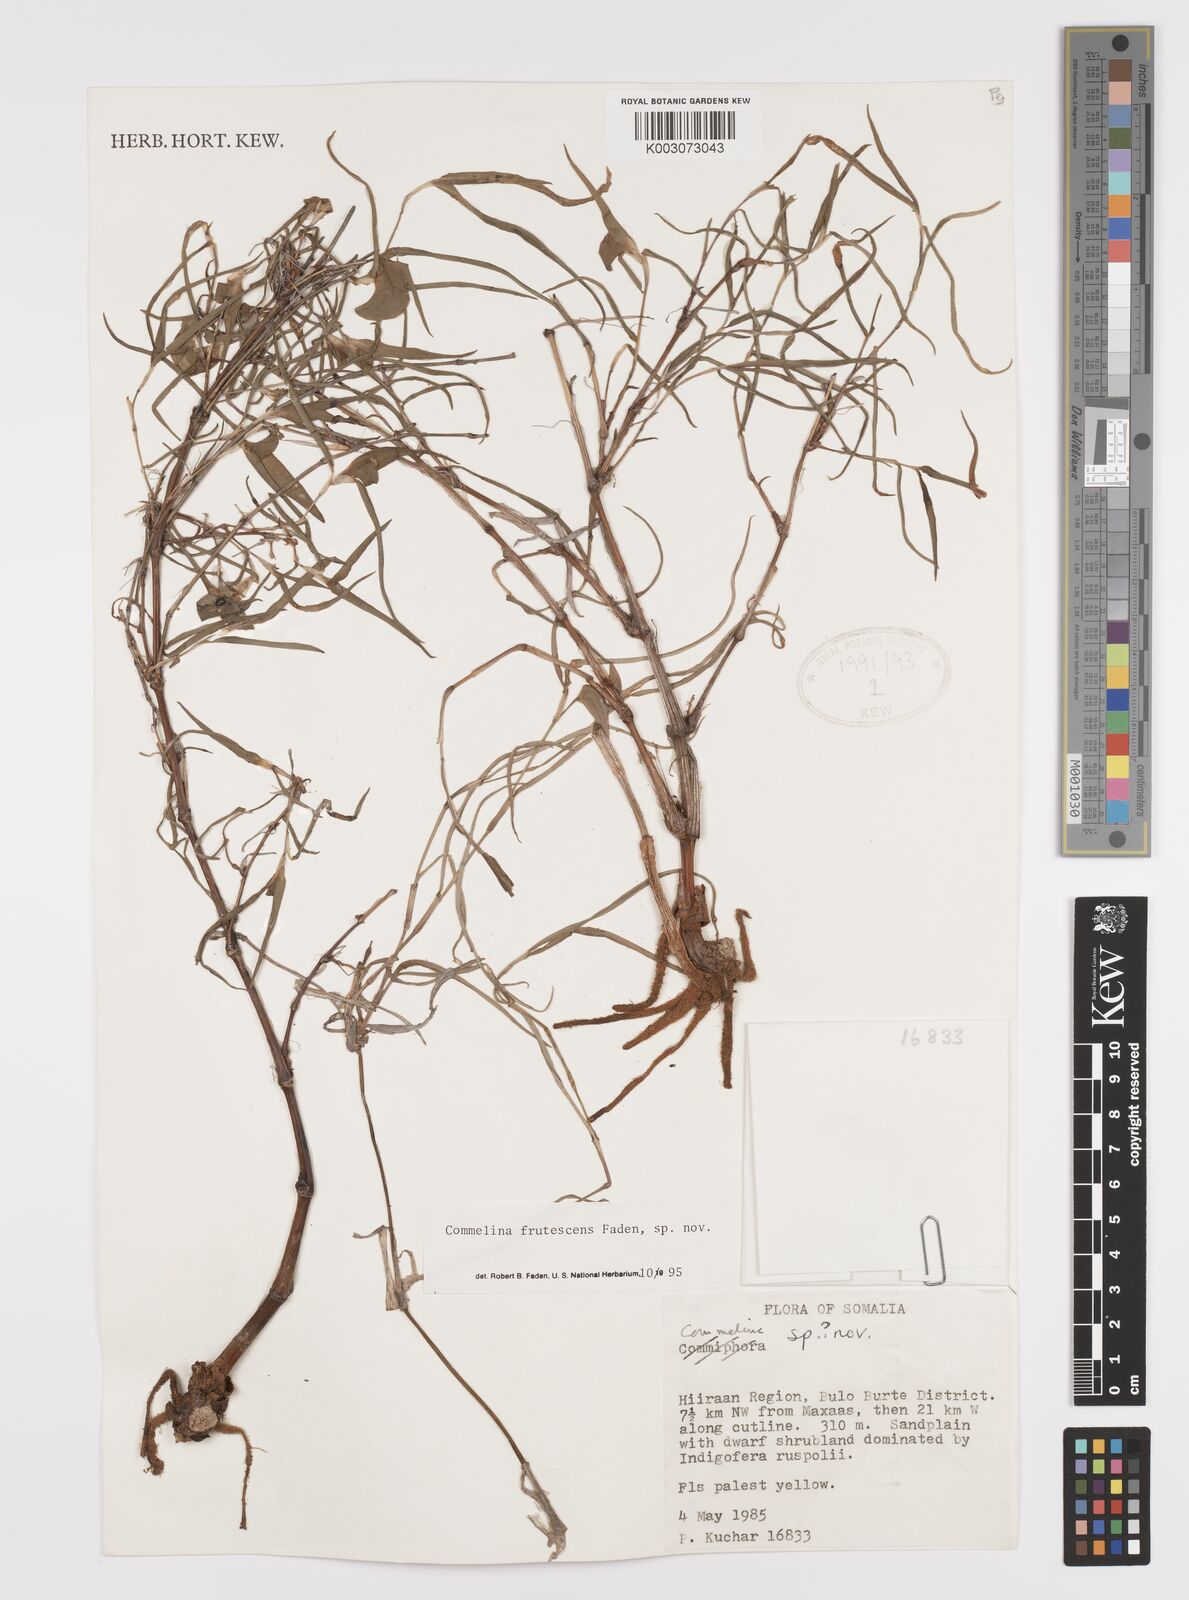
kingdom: Plantae
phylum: Tracheophyta
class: Liliopsida
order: Commelinales
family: Commelinaceae
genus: Commelina
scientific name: Commelina frutescens
